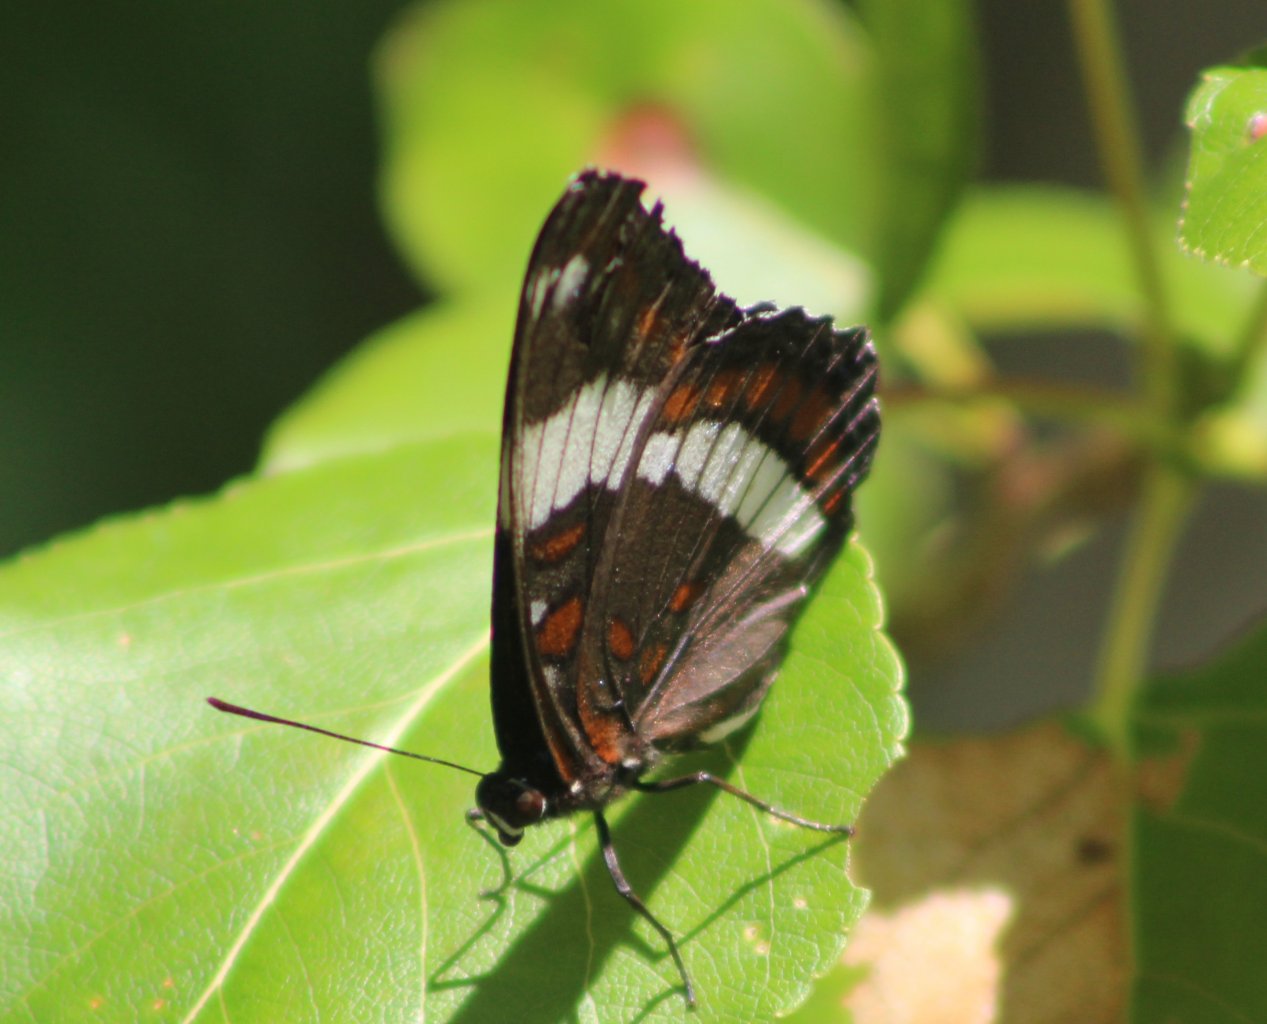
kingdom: Animalia
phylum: Arthropoda
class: Insecta
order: Lepidoptera
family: Nymphalidae
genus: Limenitis
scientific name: Limenitis arthemis
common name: Red-spotted Admiral
